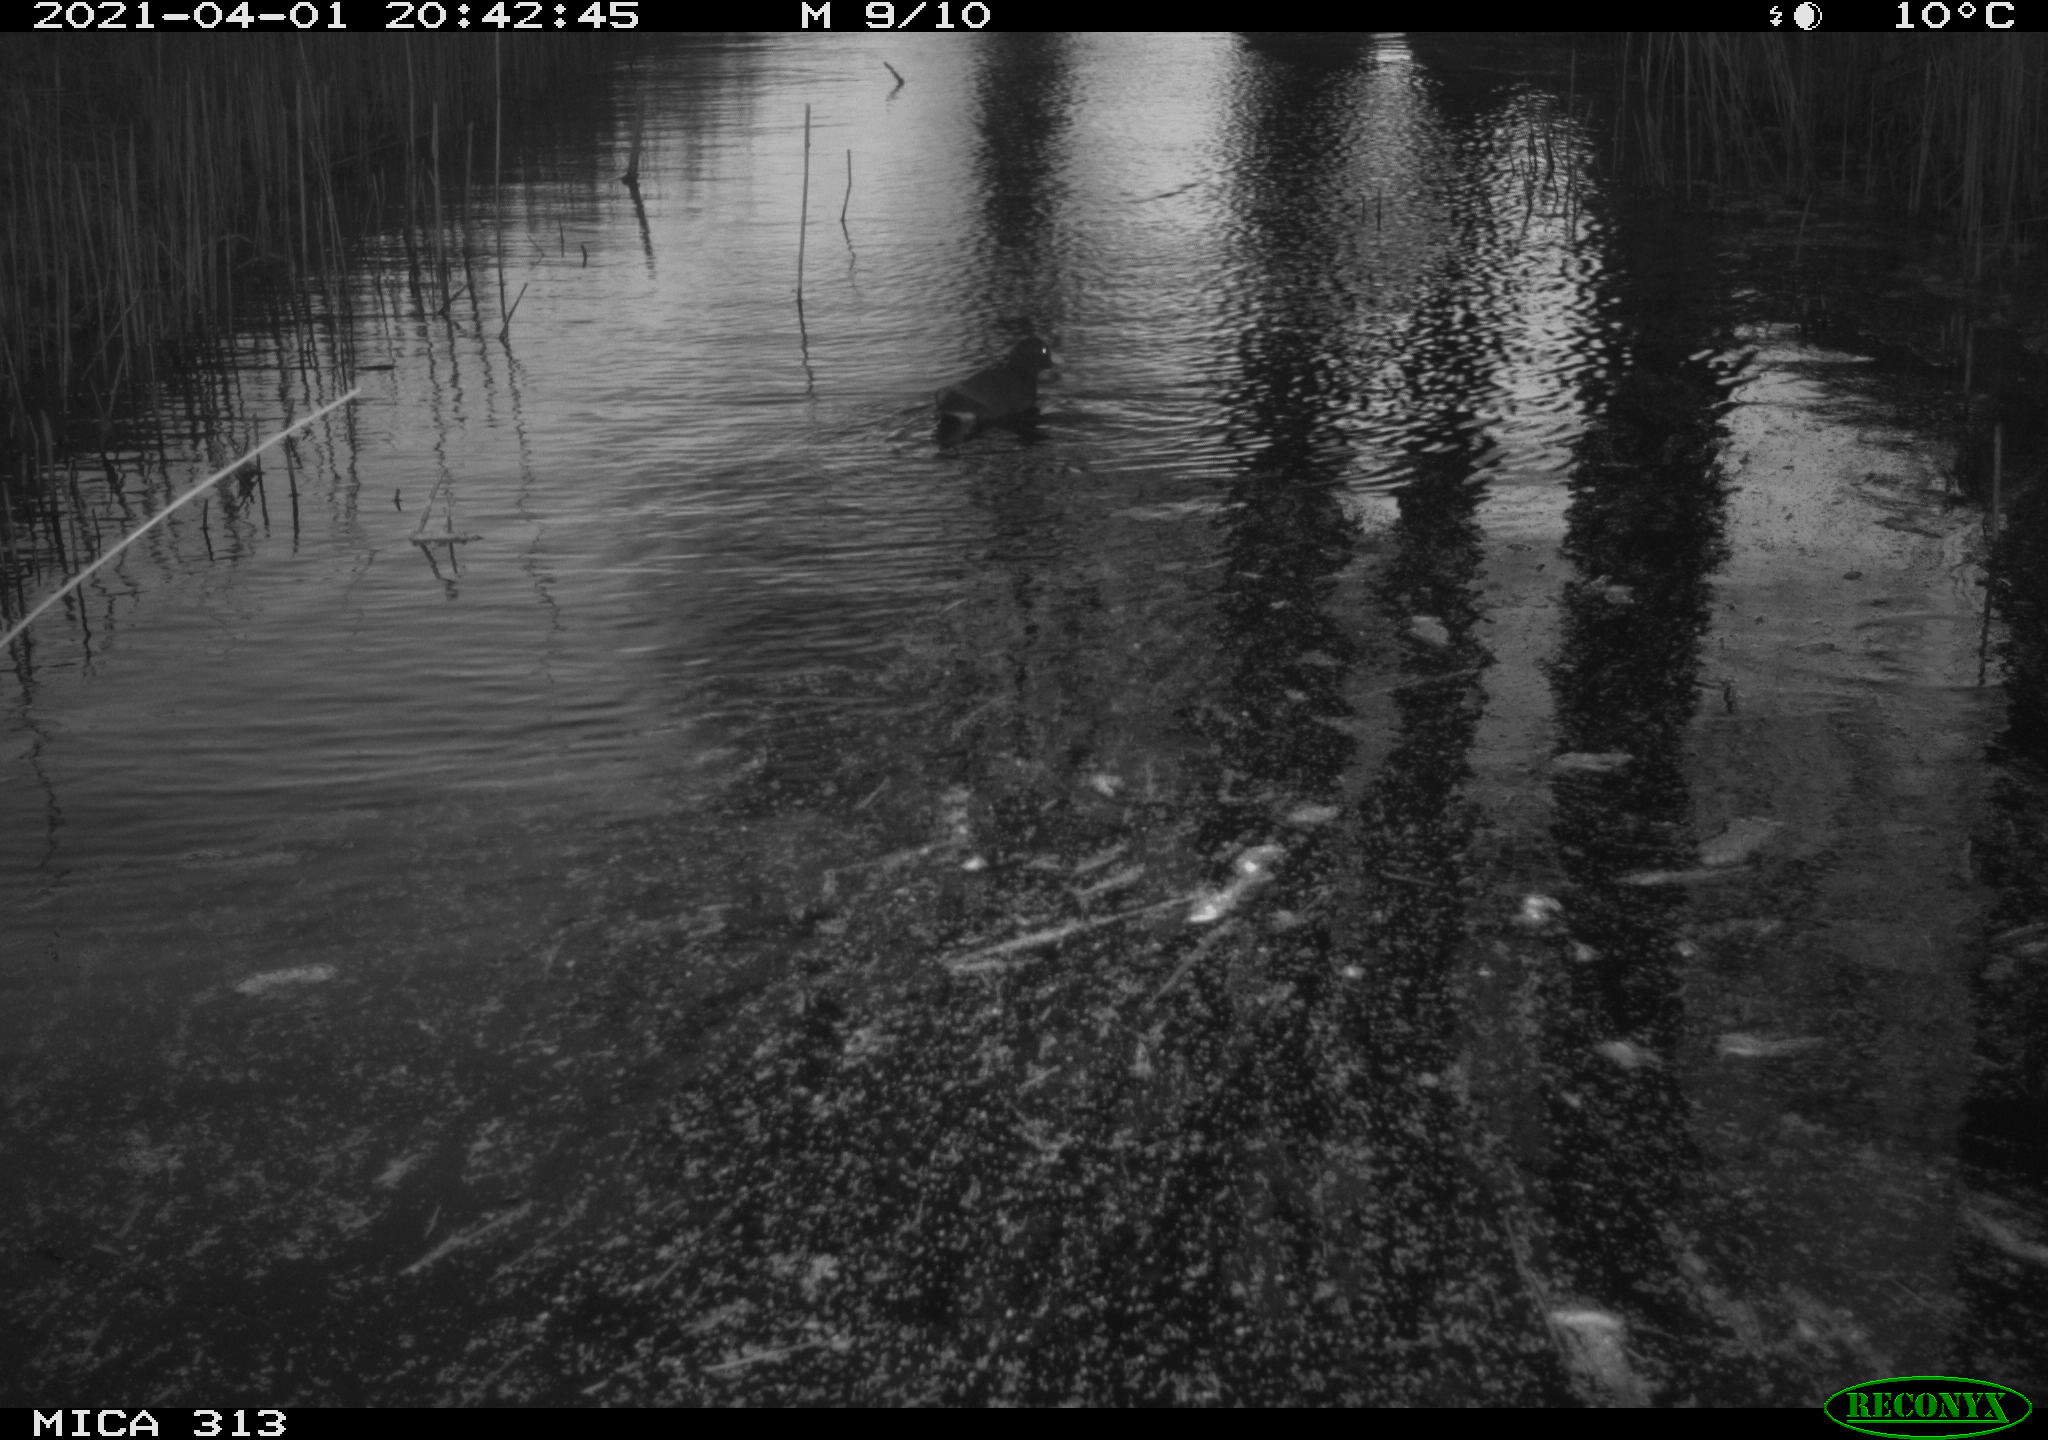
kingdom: Animalia
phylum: Chordata
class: Aves
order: Gruiformes
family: Rallidae
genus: Gallinula
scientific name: Gallinula chloropus
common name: Common moorhen
